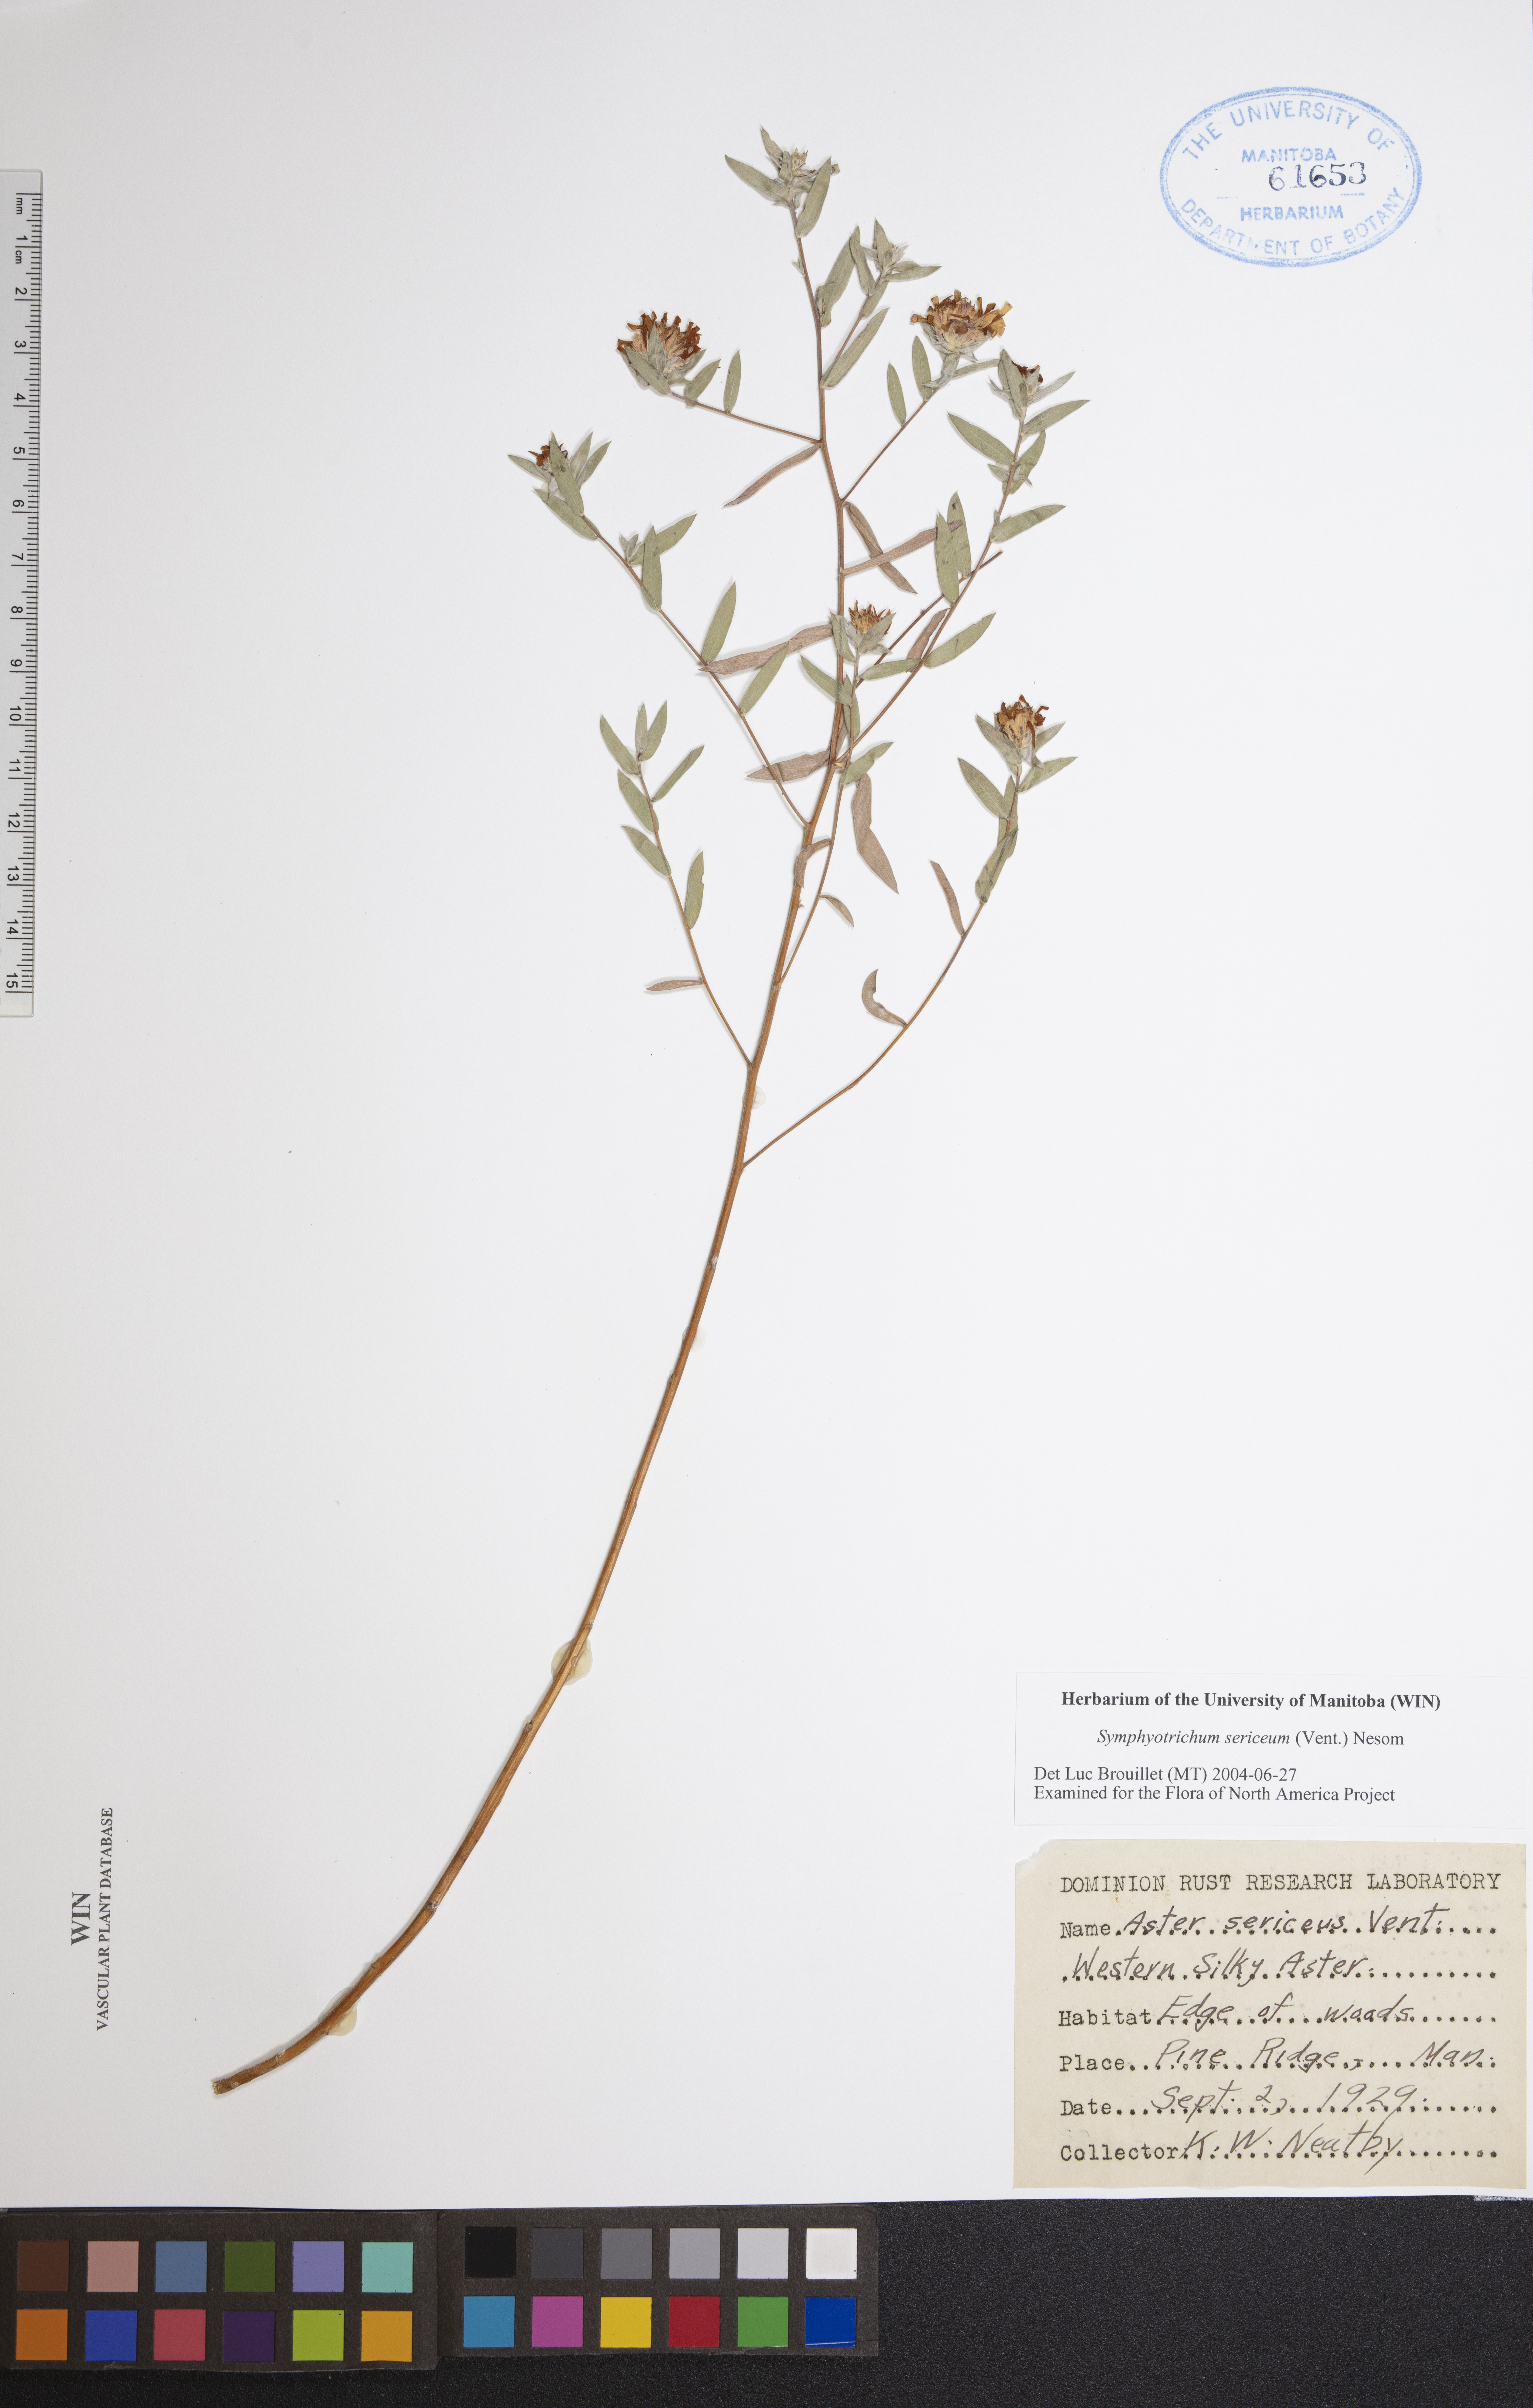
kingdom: Plantae
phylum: Tracheophyta
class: Magnoliopsida
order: Asterales
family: Asteraceae
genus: Symphyotrichum
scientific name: Symphyotrichum sericeum
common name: Silky aster
